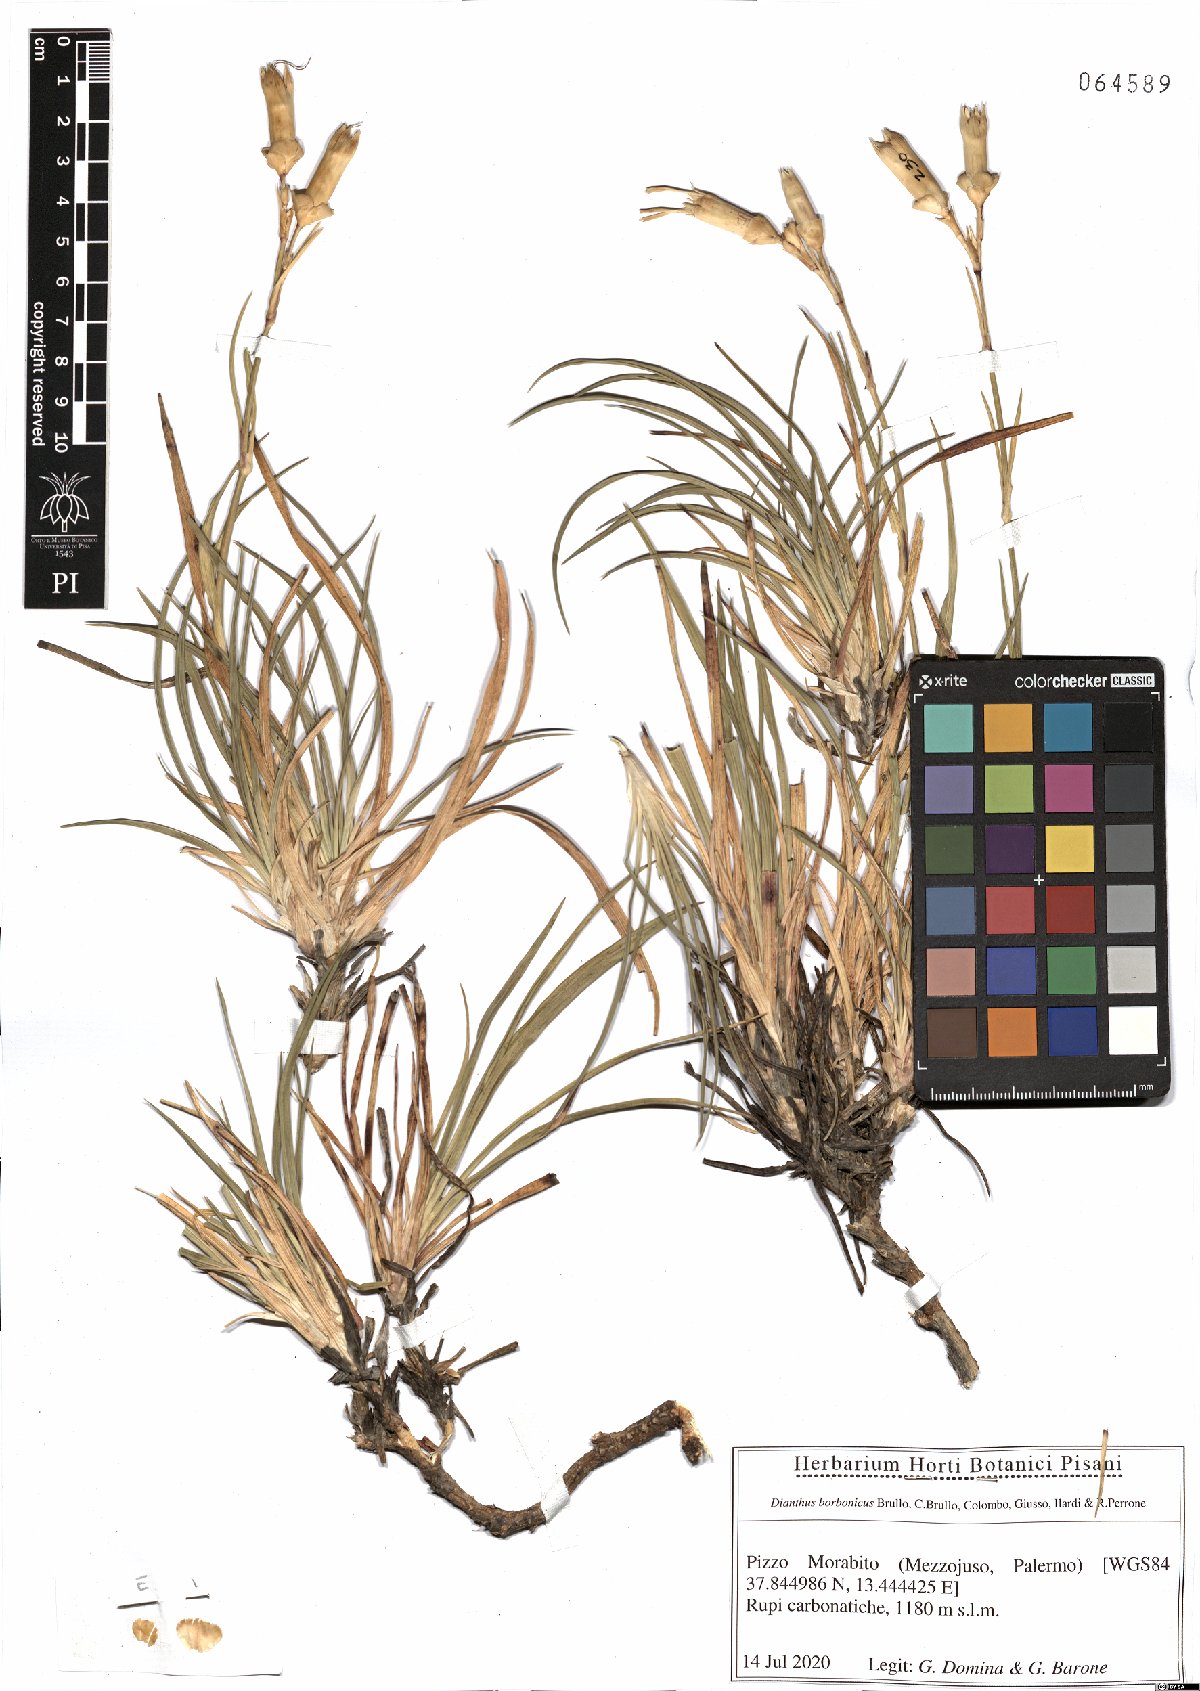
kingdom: Plantae
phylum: Tracheophyta
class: Magnoliopsida
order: Caryophyllales
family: Caryophyllaceae
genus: Dianthus
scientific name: Dianthus borbonicus
